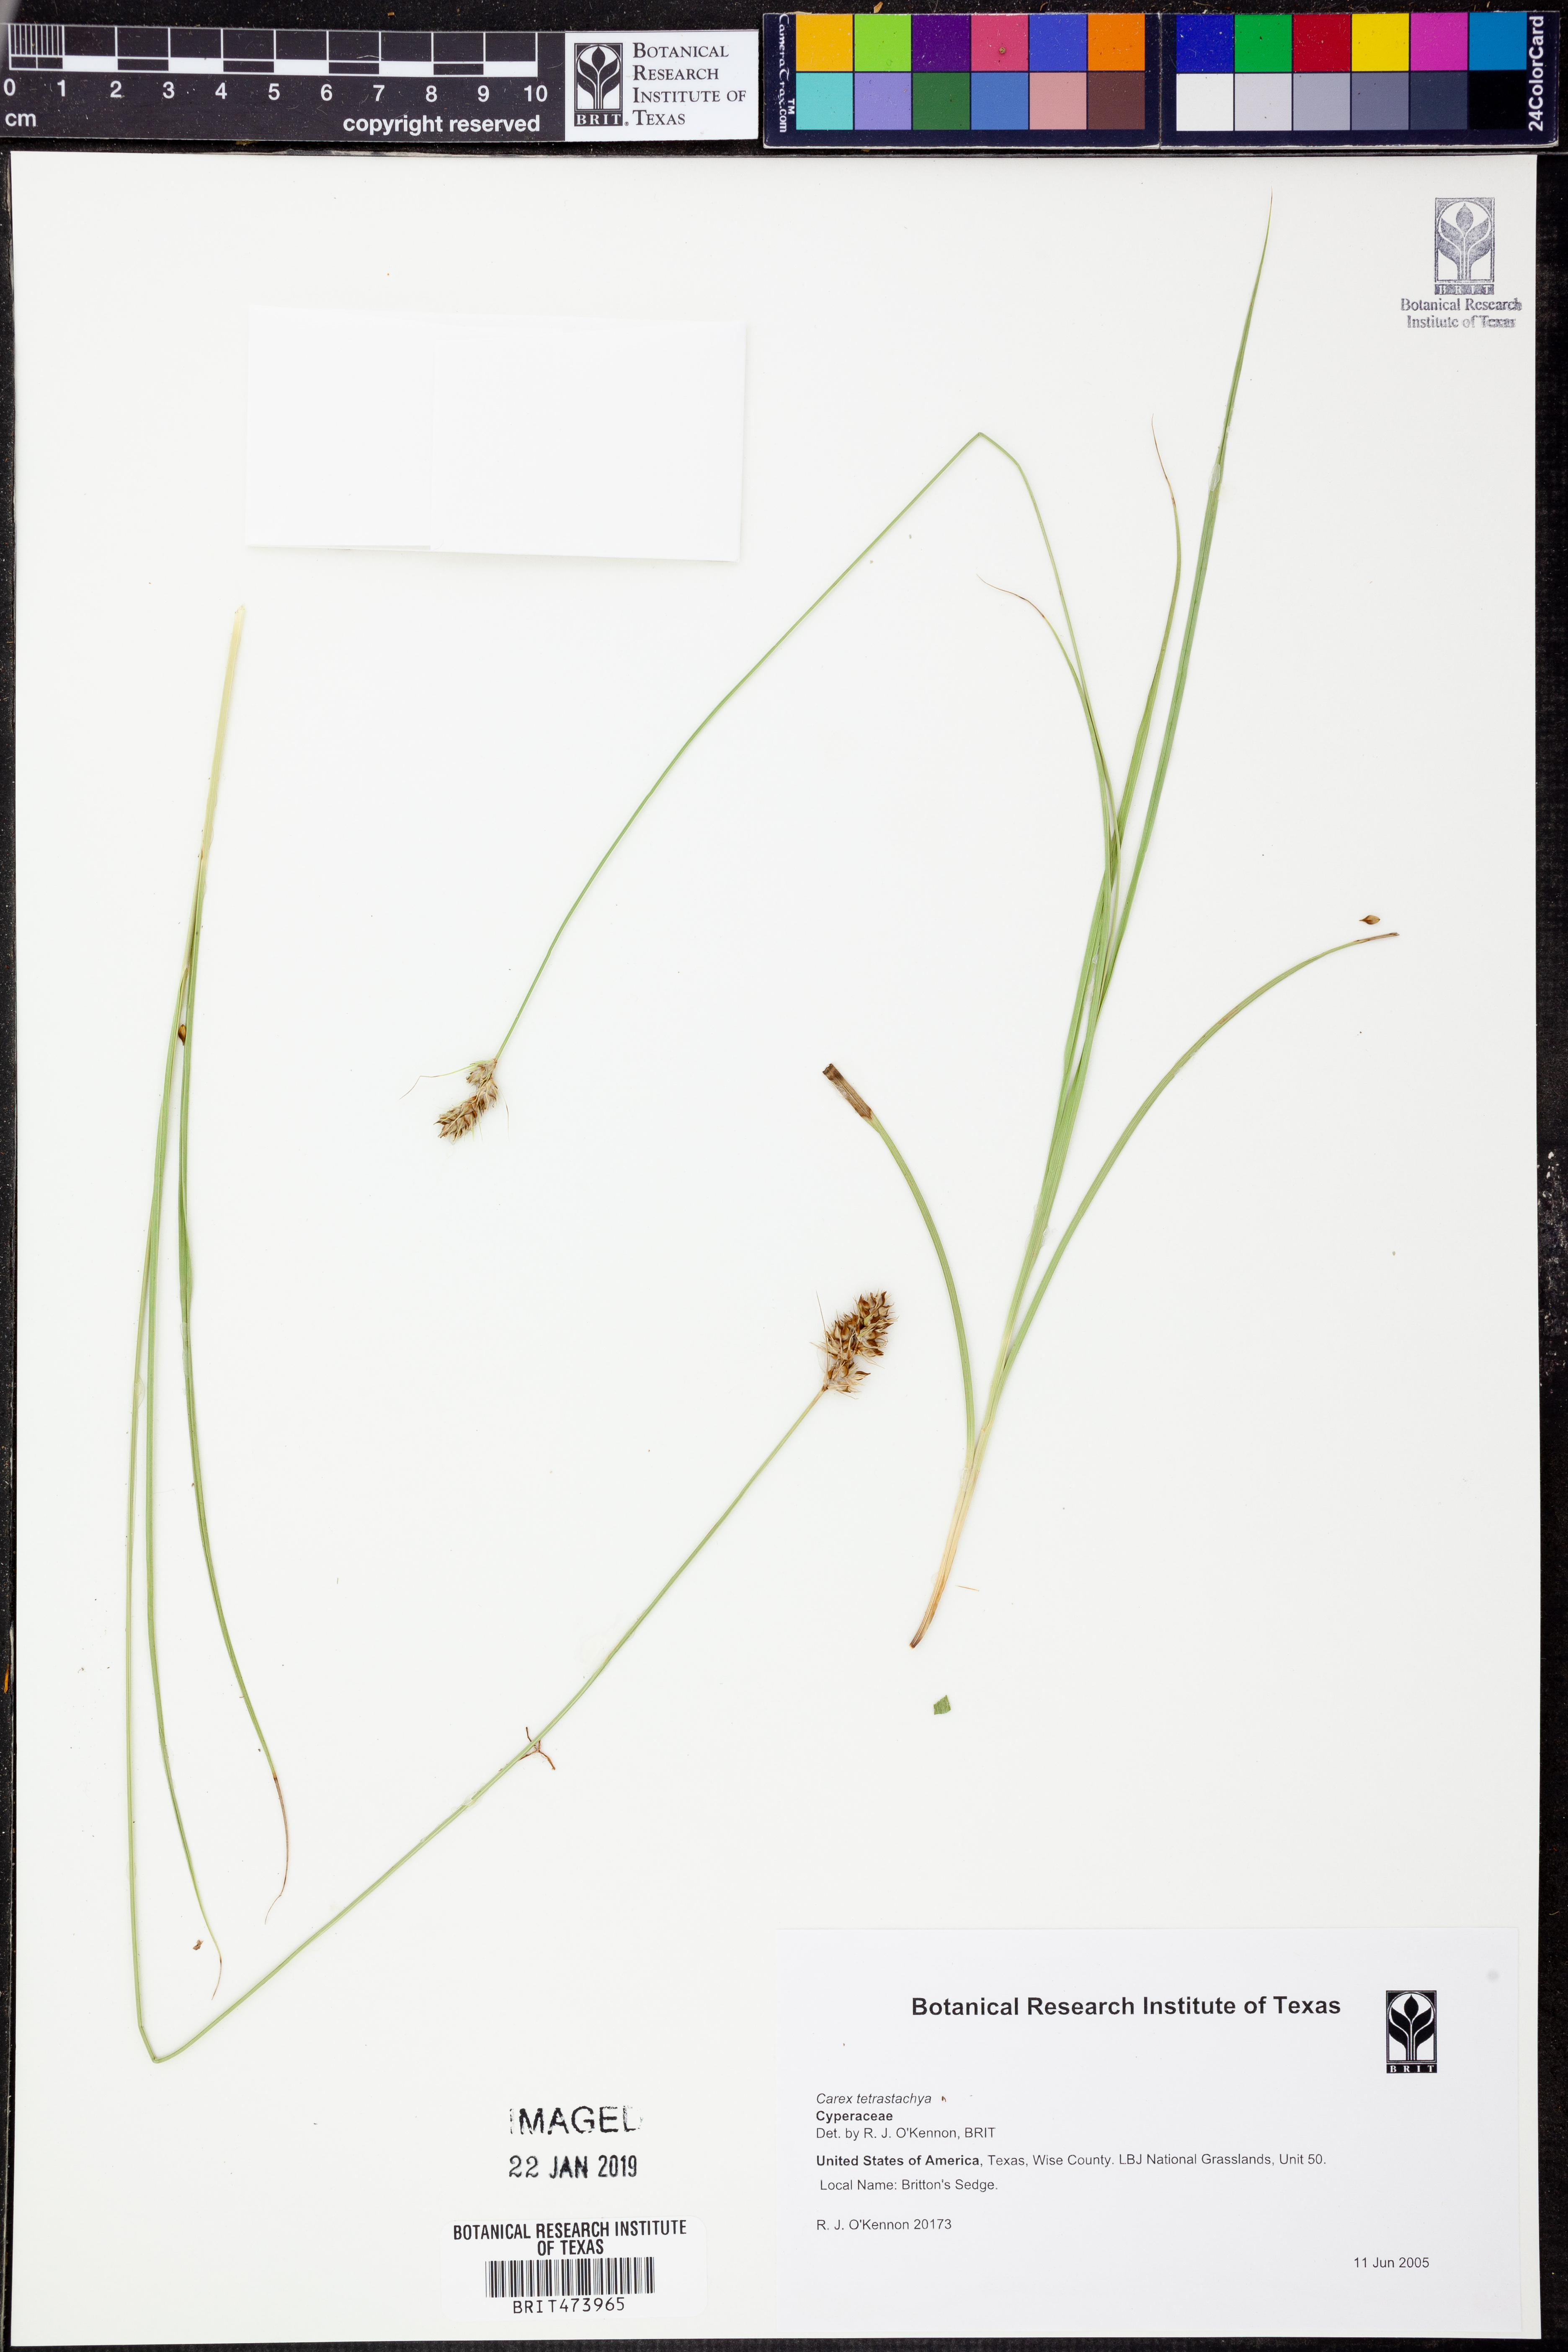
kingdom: Plantae
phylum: Tracheophyta
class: Liliopsida
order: Poales
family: Cyperaceae
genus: Carex
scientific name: Carex tetrastachya
